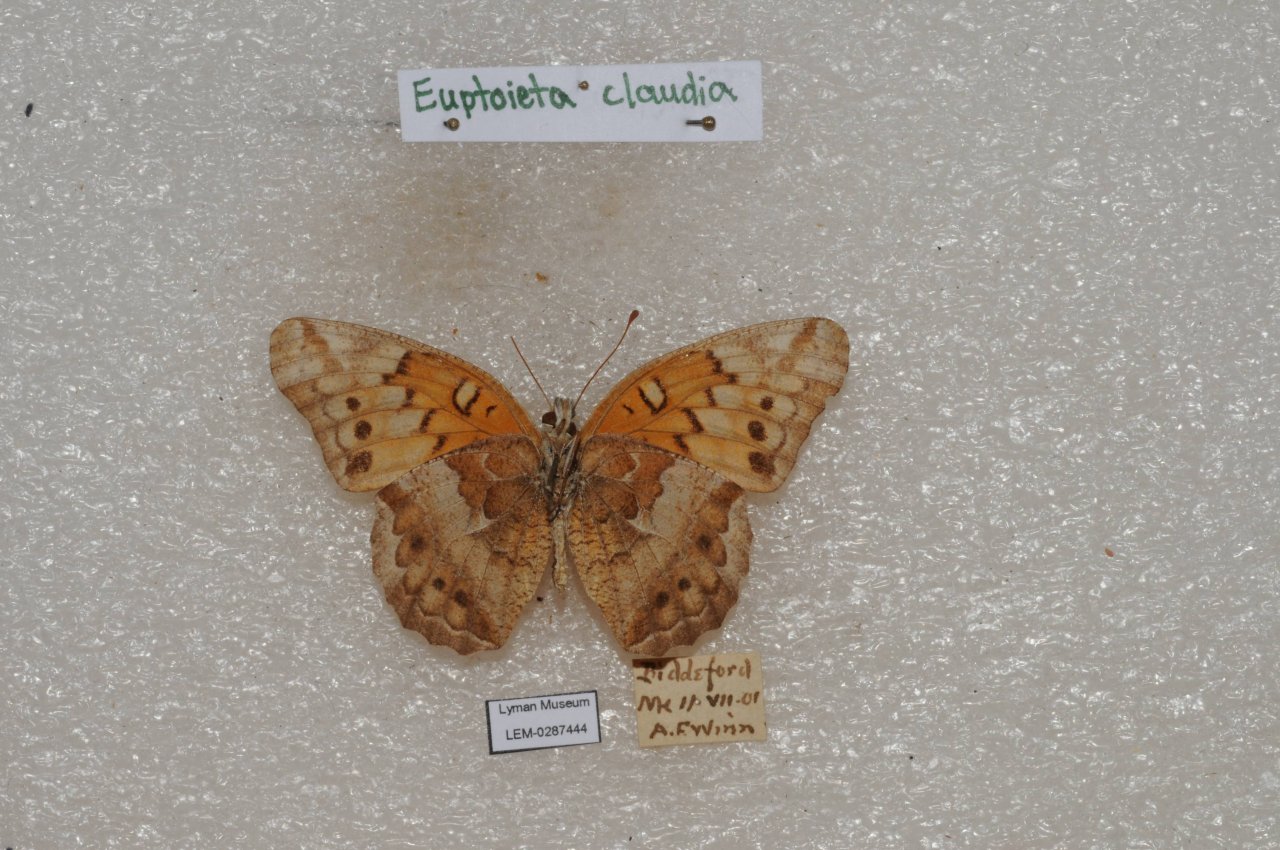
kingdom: Animalia
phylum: Arthropoda
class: Insecta
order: Lepidoptera
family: Nymphalidae
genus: Euptoieta
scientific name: Euptoieta claudia
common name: Variegated Fritillary
